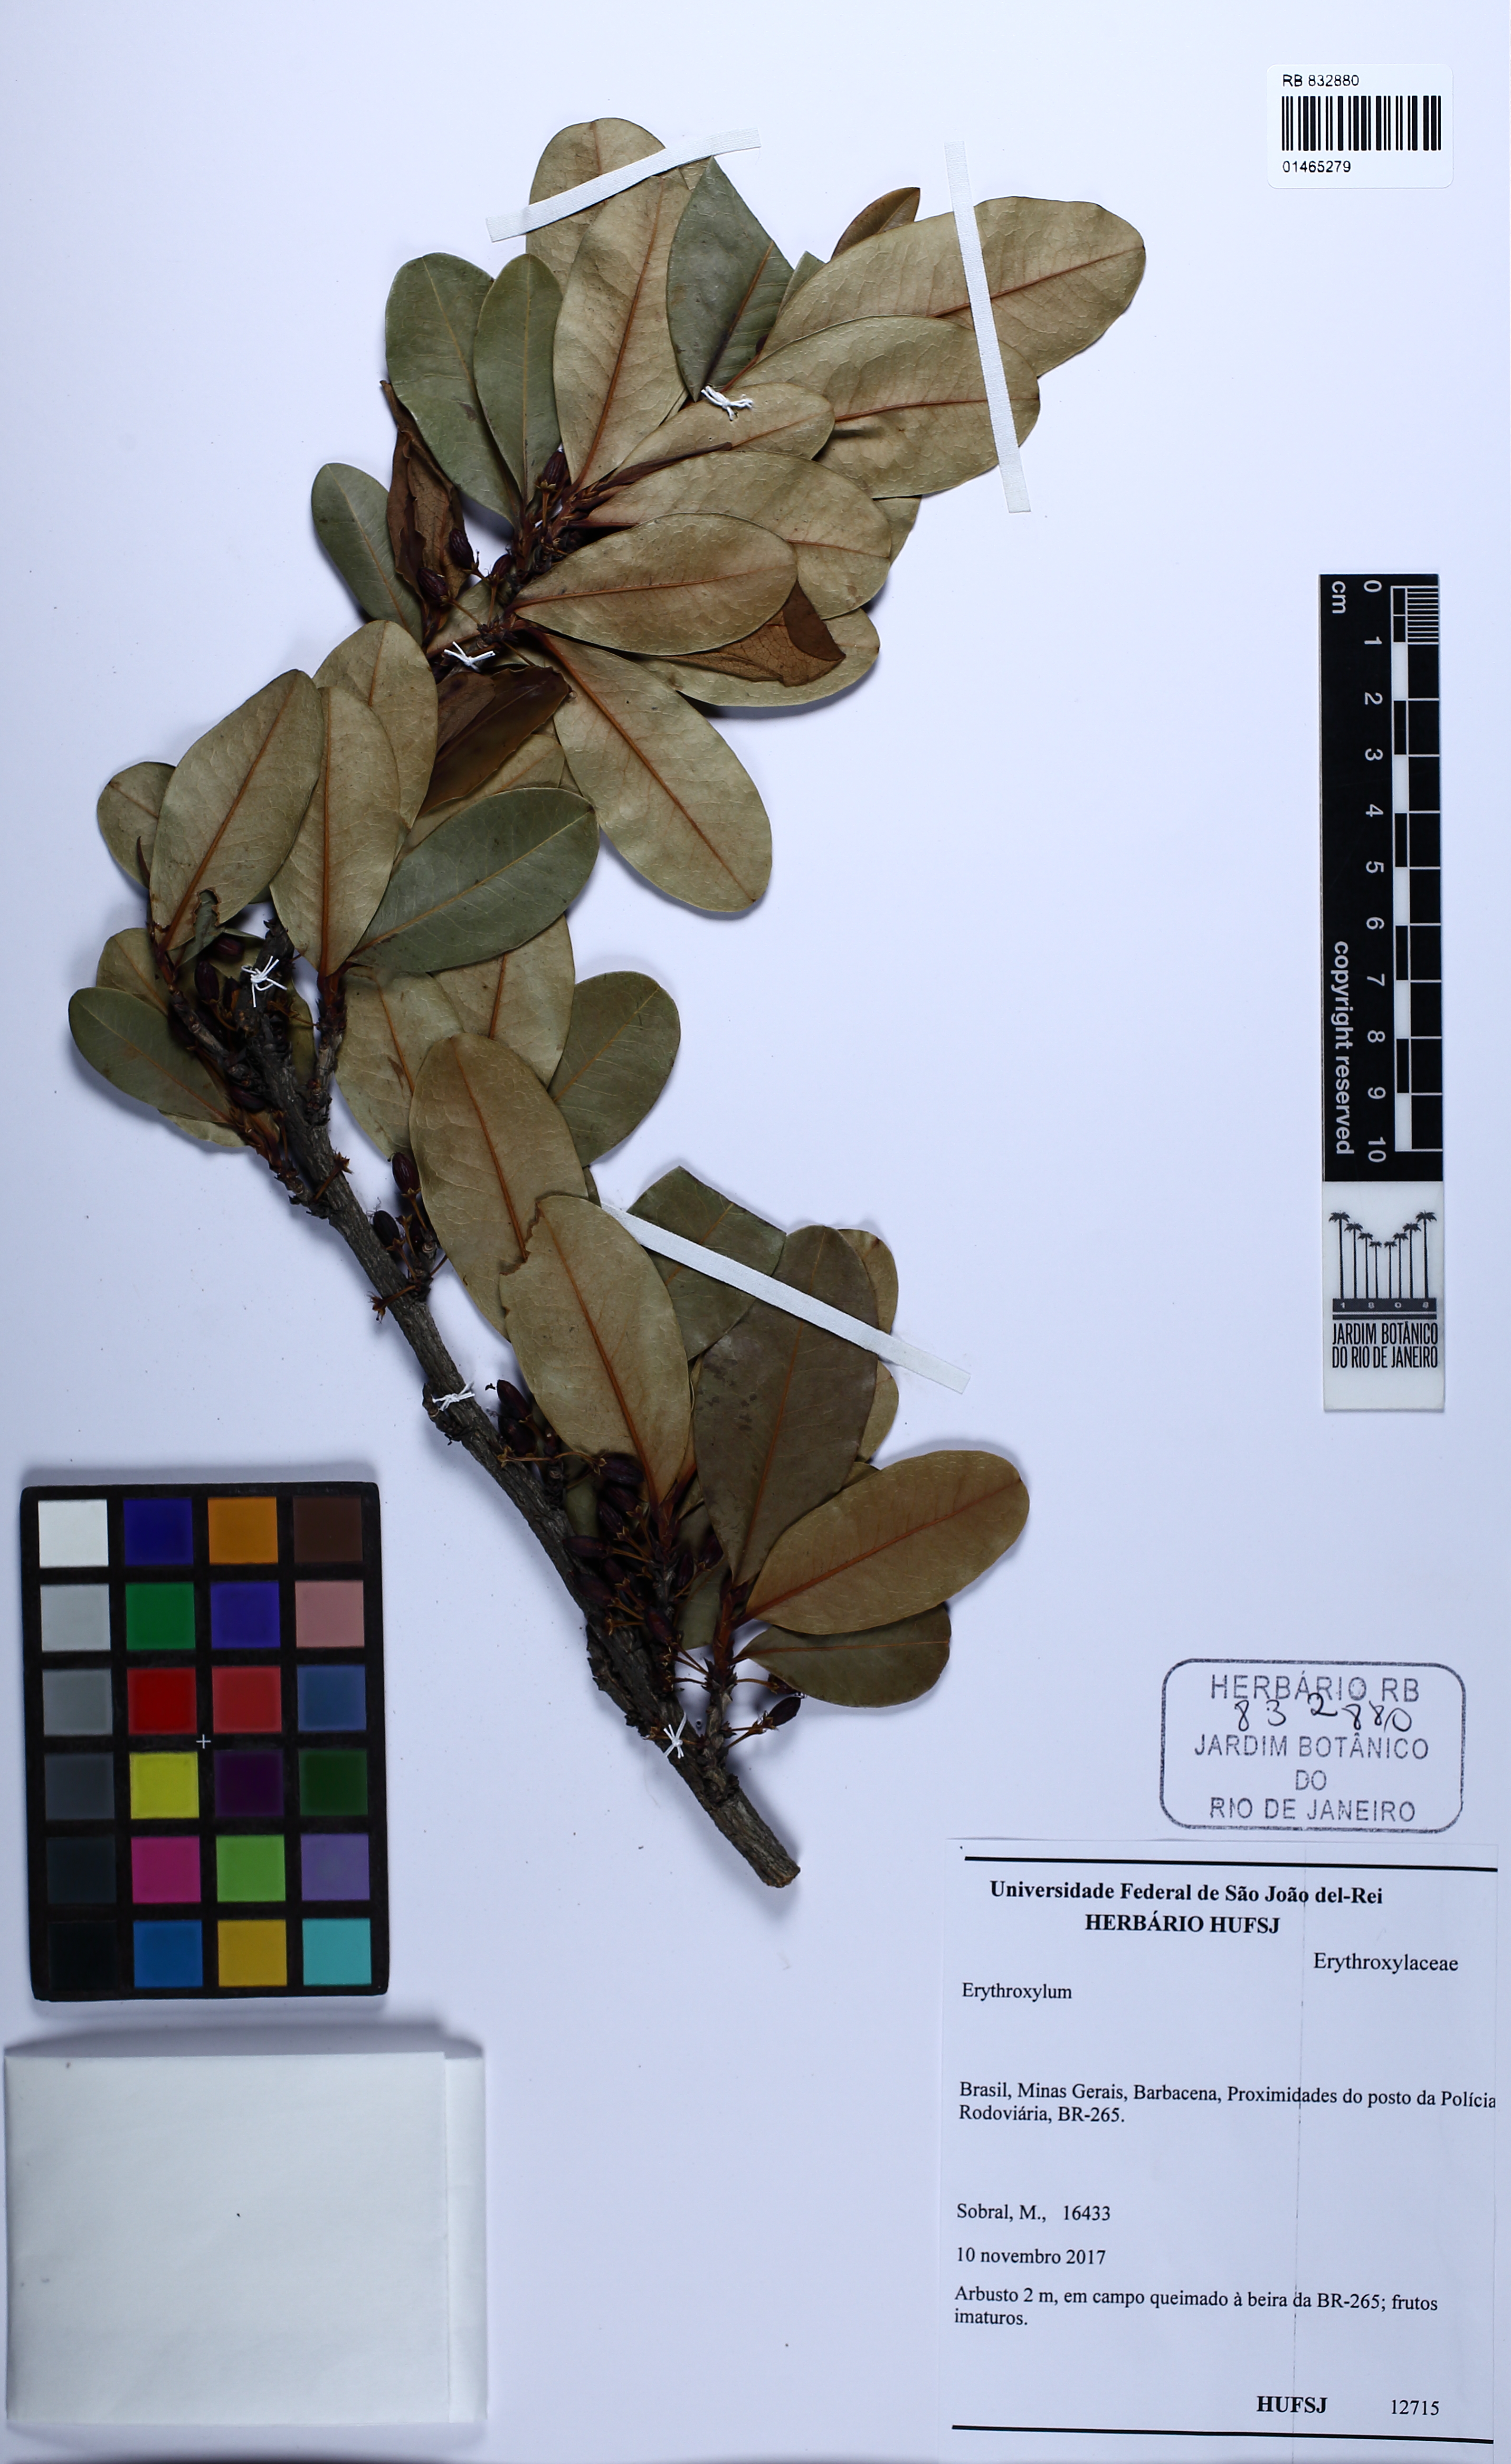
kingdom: Plantae
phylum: Tracheophyta
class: Magnoliopsida
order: Malpighiales
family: Erythroxylaceae
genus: Erythroxylum
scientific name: Erythroxylum
